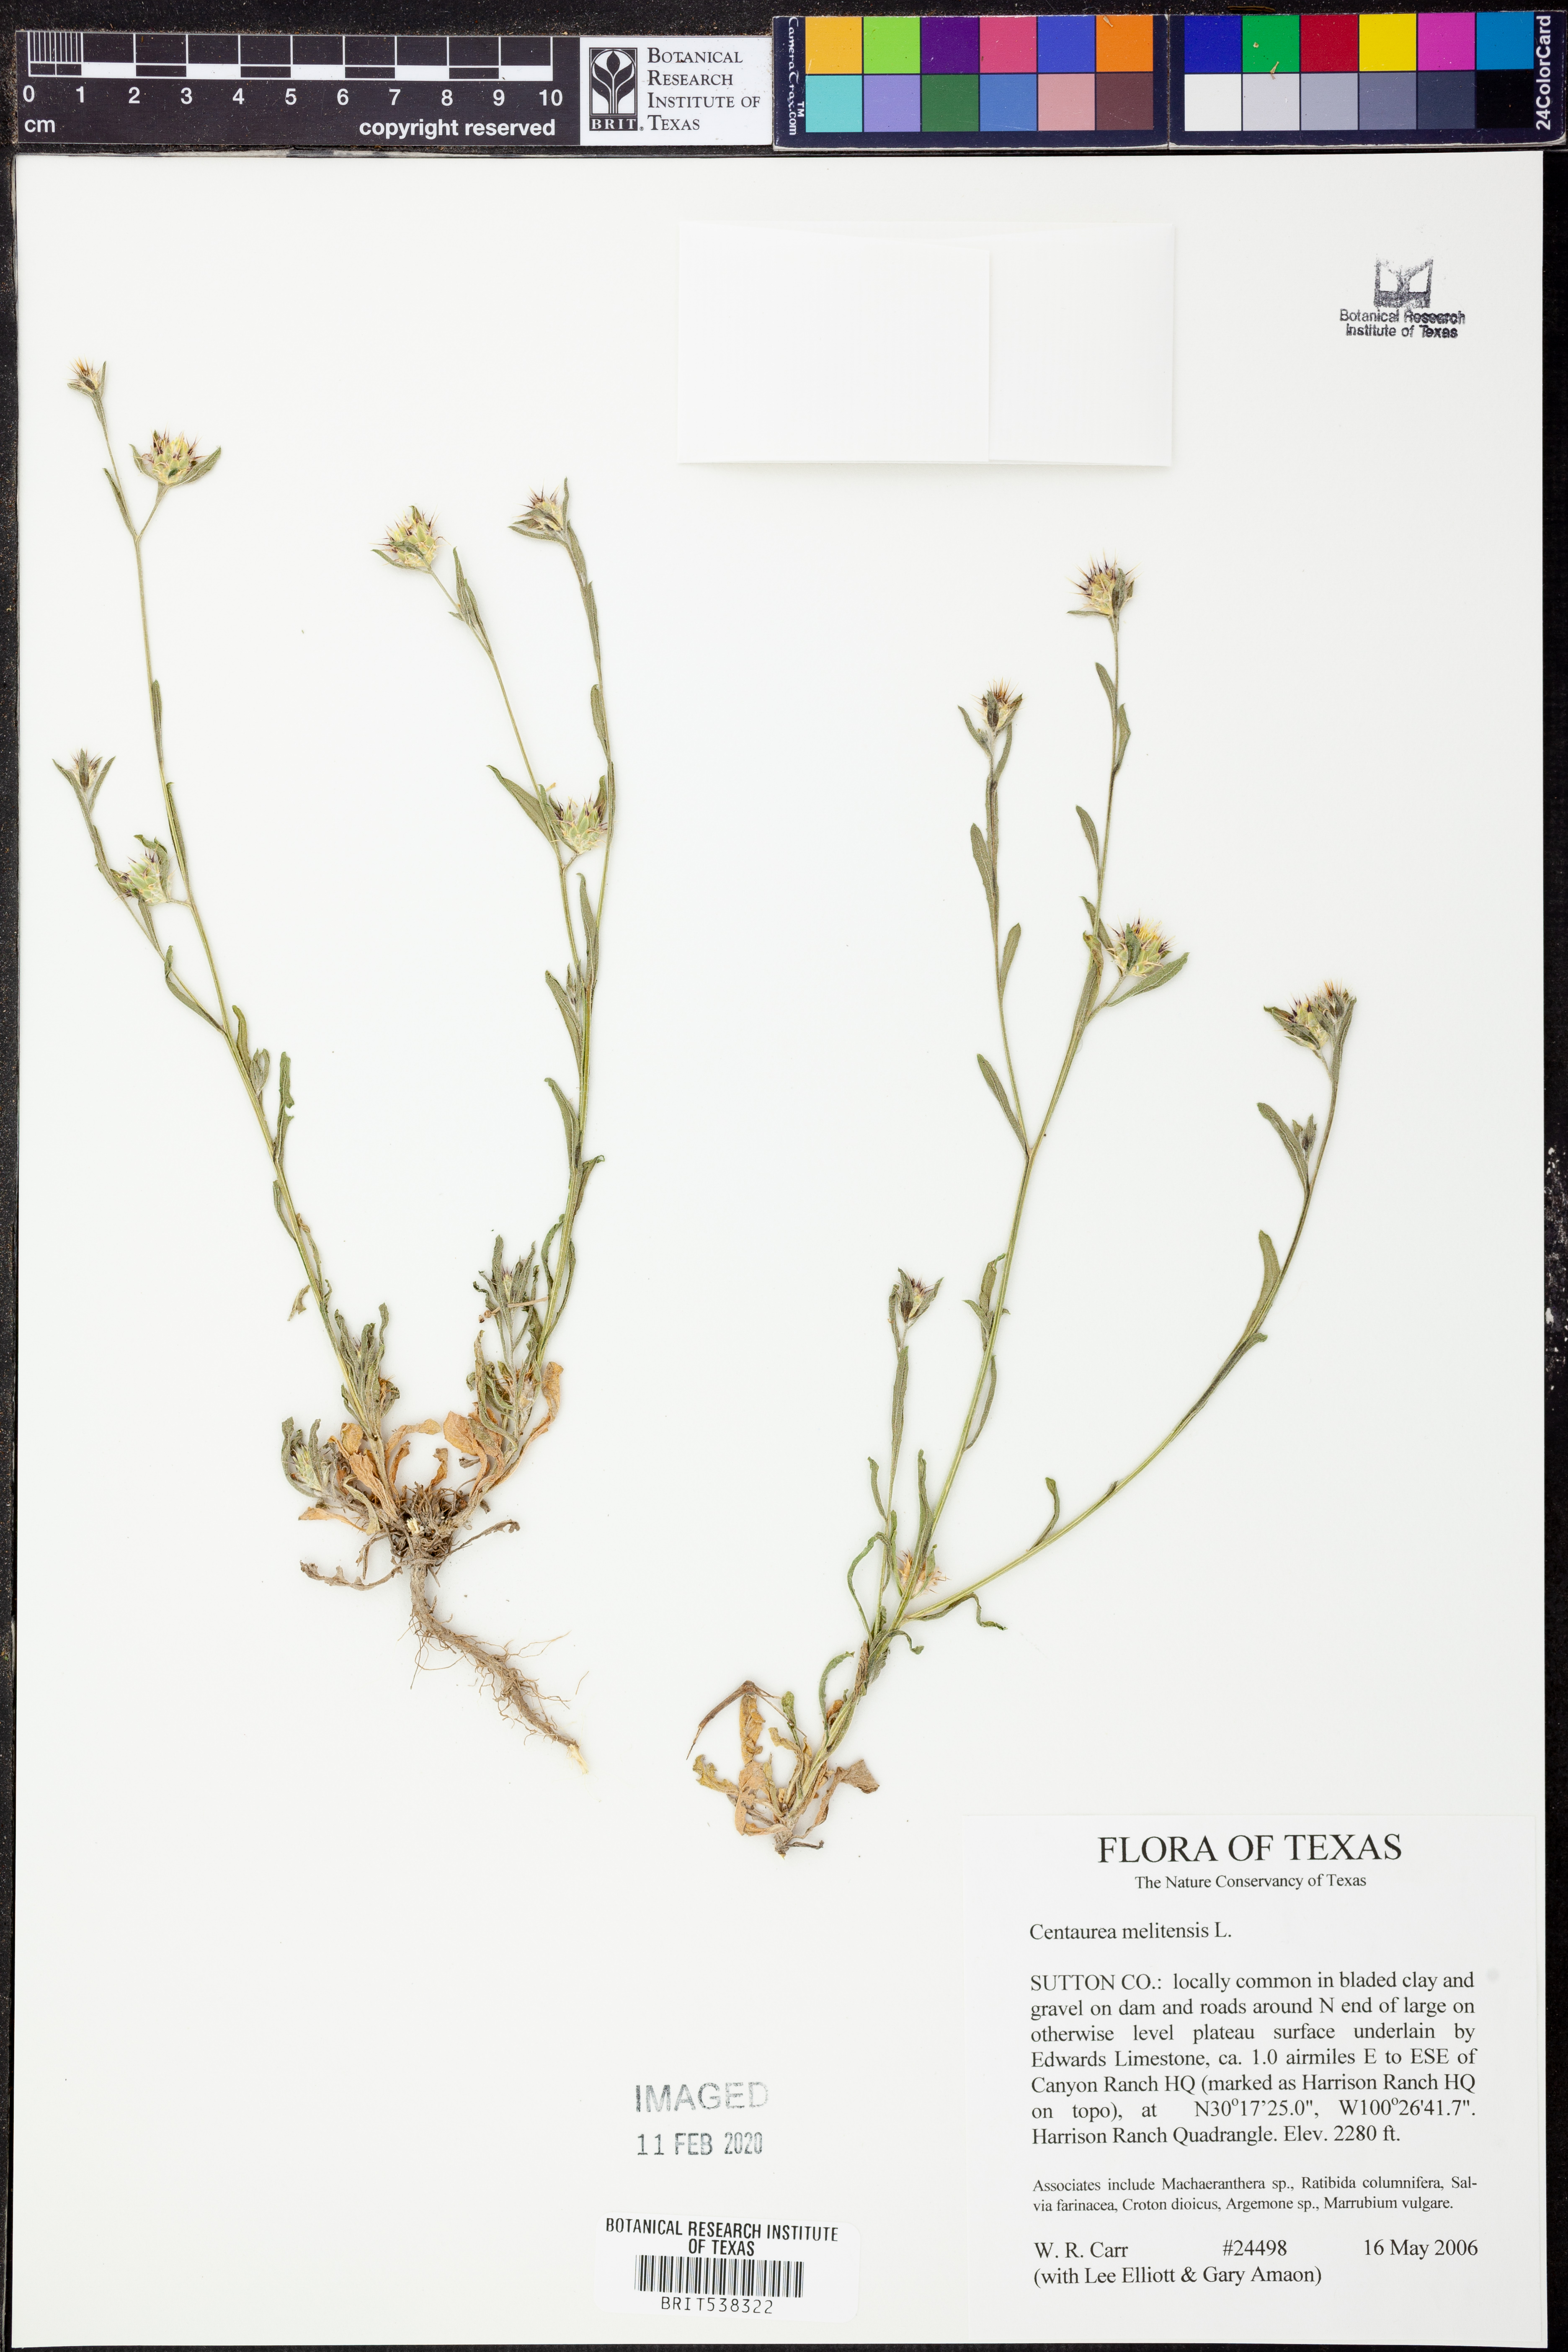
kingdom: Plantae
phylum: Tracheophyta
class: Magnoliopsida
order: Asterales
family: Asteraceae
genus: Centaurea
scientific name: Centaurea melitensis
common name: Maltese star-thistle
